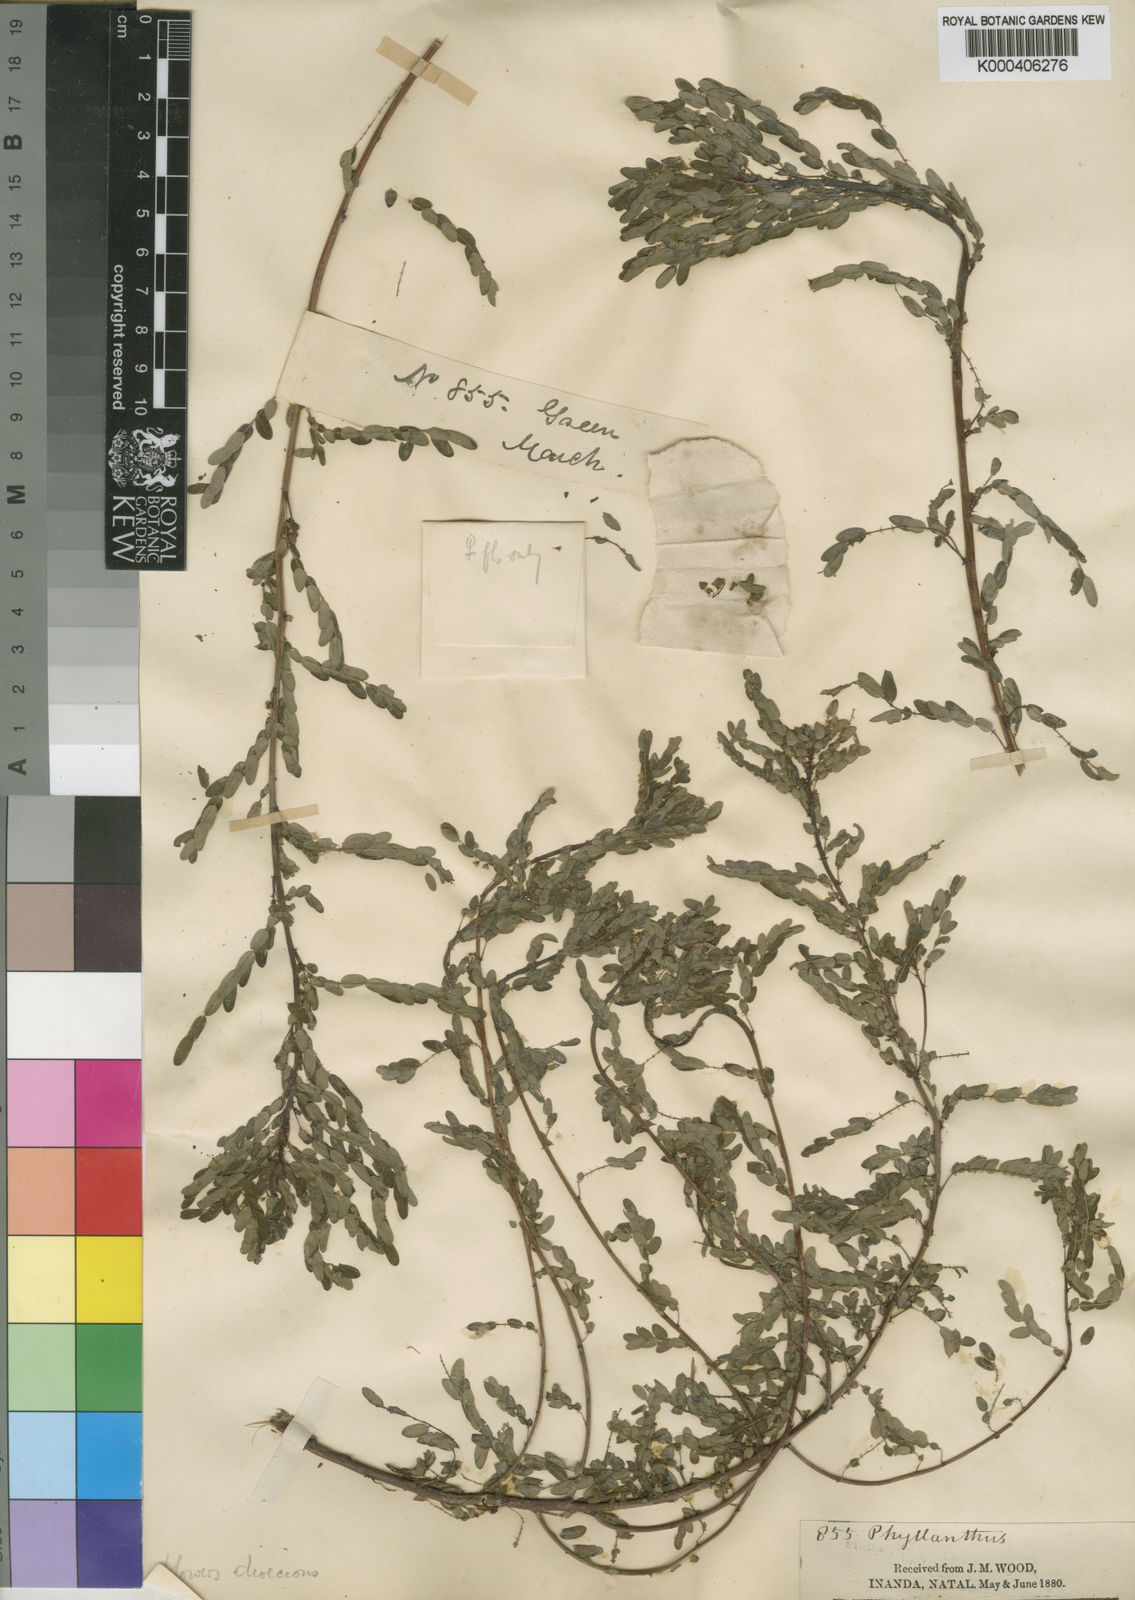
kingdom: Plantae
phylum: Tracheophyta
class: Magnoliopsida
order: Malpighiales
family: Phyllanthaceae
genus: Phyllanthus
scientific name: Phyllanthus
